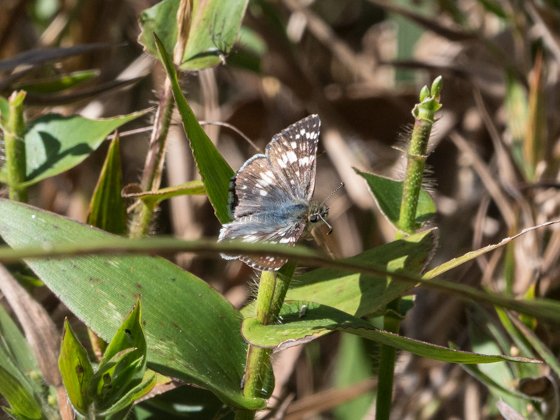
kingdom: Animalia
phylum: Arthropoda
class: Insecta
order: Lepidoptera
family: Hesperiidae
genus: Pyrgus
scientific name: Pyrgus communis
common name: Common Checkered-Skipper
